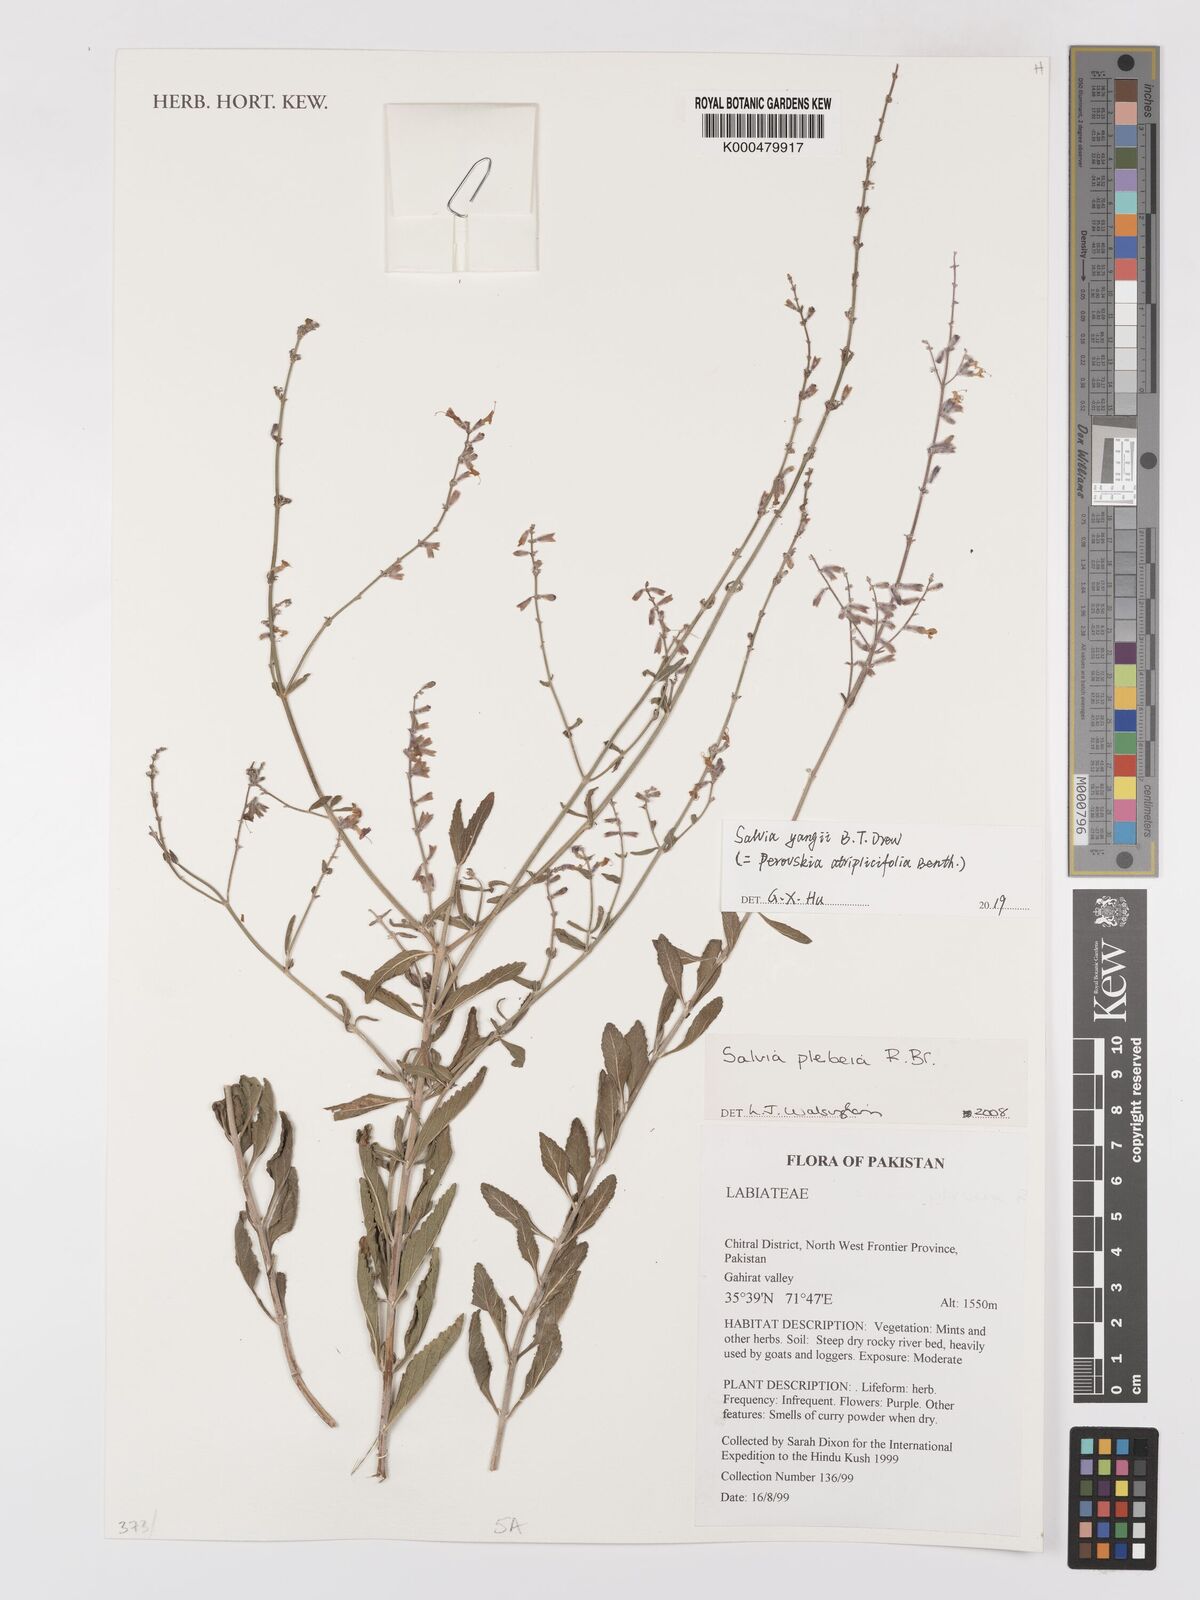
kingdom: Plantae
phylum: Tracheophyta
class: Magnoliopsida
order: Lamiales
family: Lamiaceae
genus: Salvia
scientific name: Salvia yangii
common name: Russian sage
